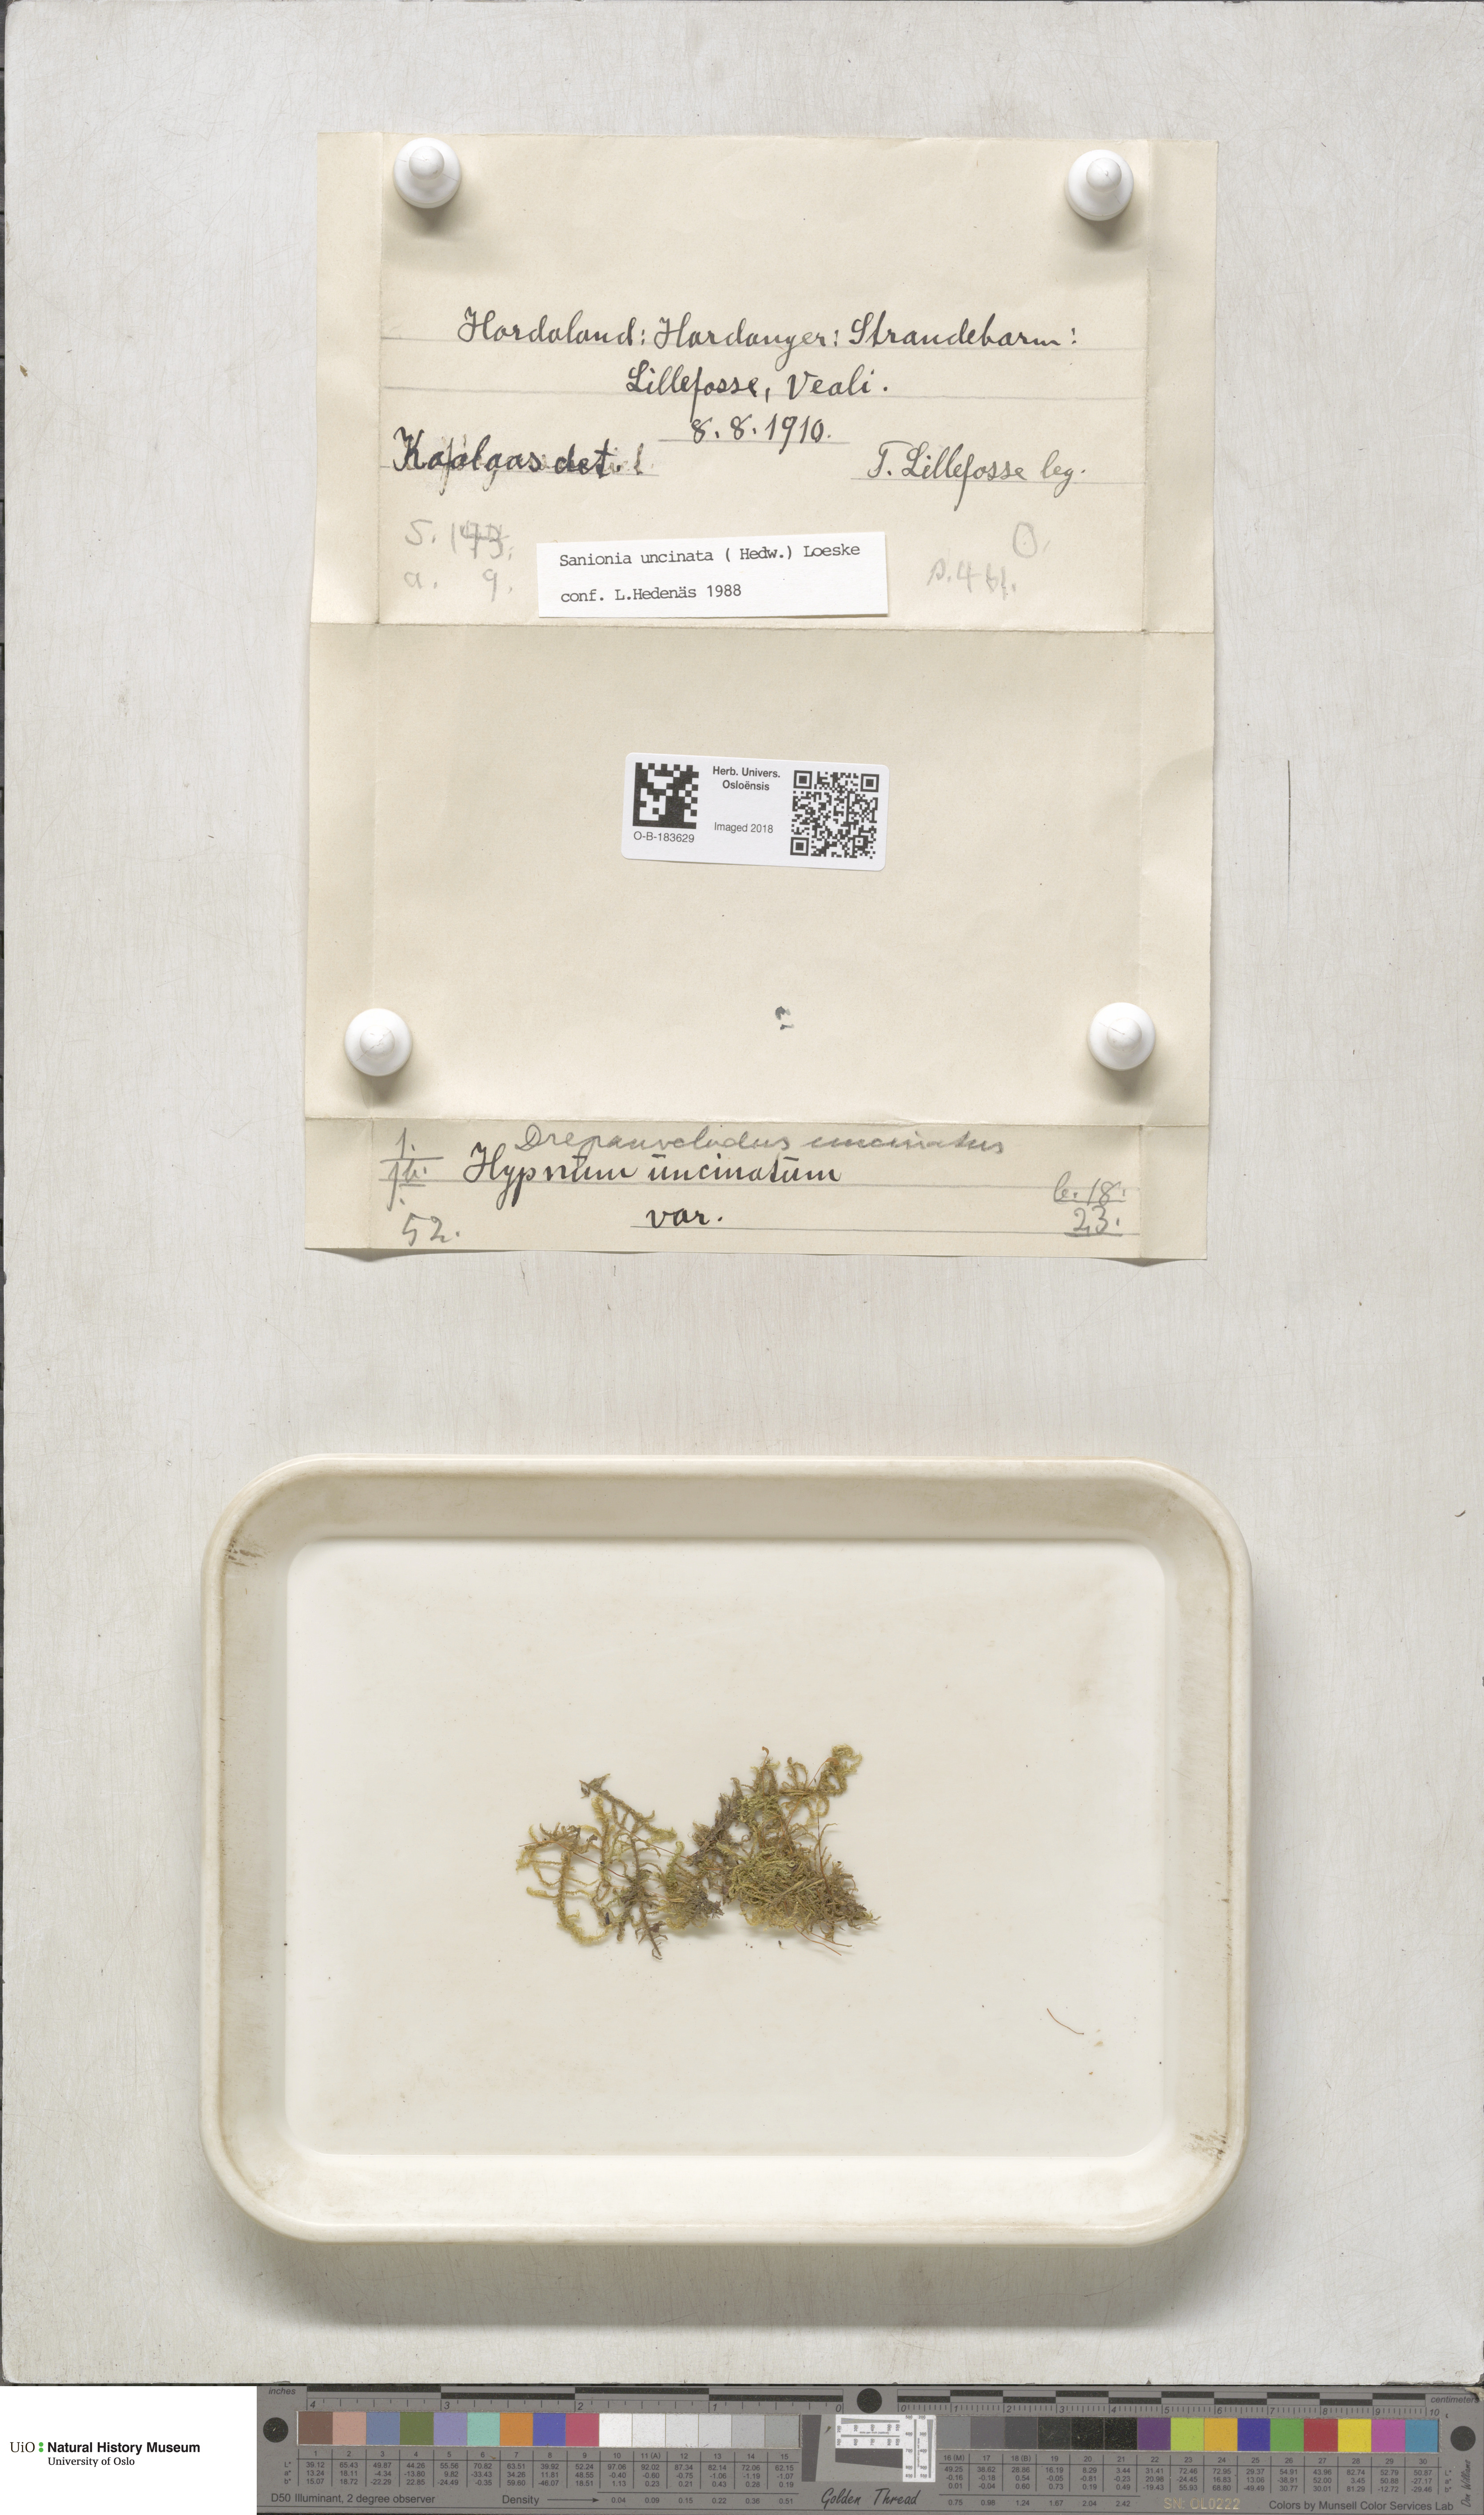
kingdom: Plantae
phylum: Bryophyta
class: Bryopsida
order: Hypnales
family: Scorpidiaceae
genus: Sanionia
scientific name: Sanionia uncinata
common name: Sickle moss
